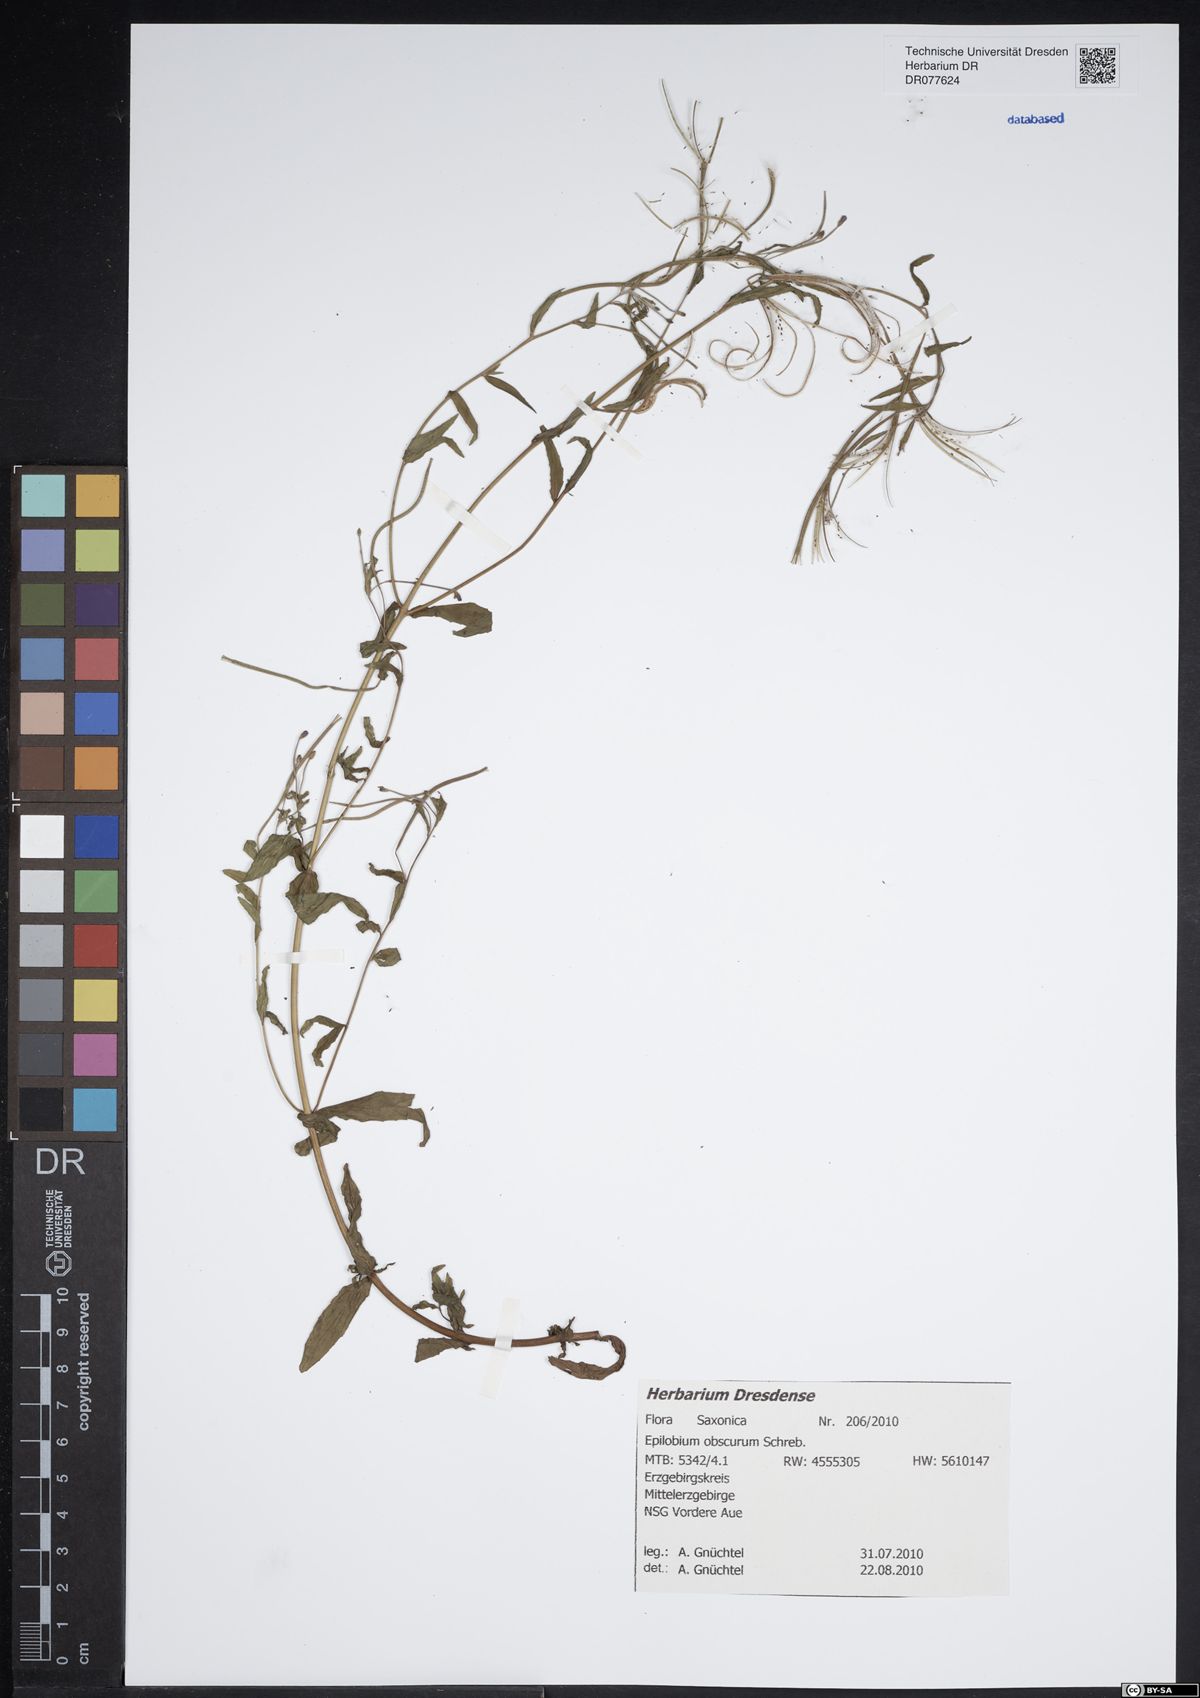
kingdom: Plantae
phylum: Tracheophyta
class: Magnoliopsida
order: Myrtales
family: Onagraceae
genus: Epilobium
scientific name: Epilobium obscurum
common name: Short-fruited willowherb
